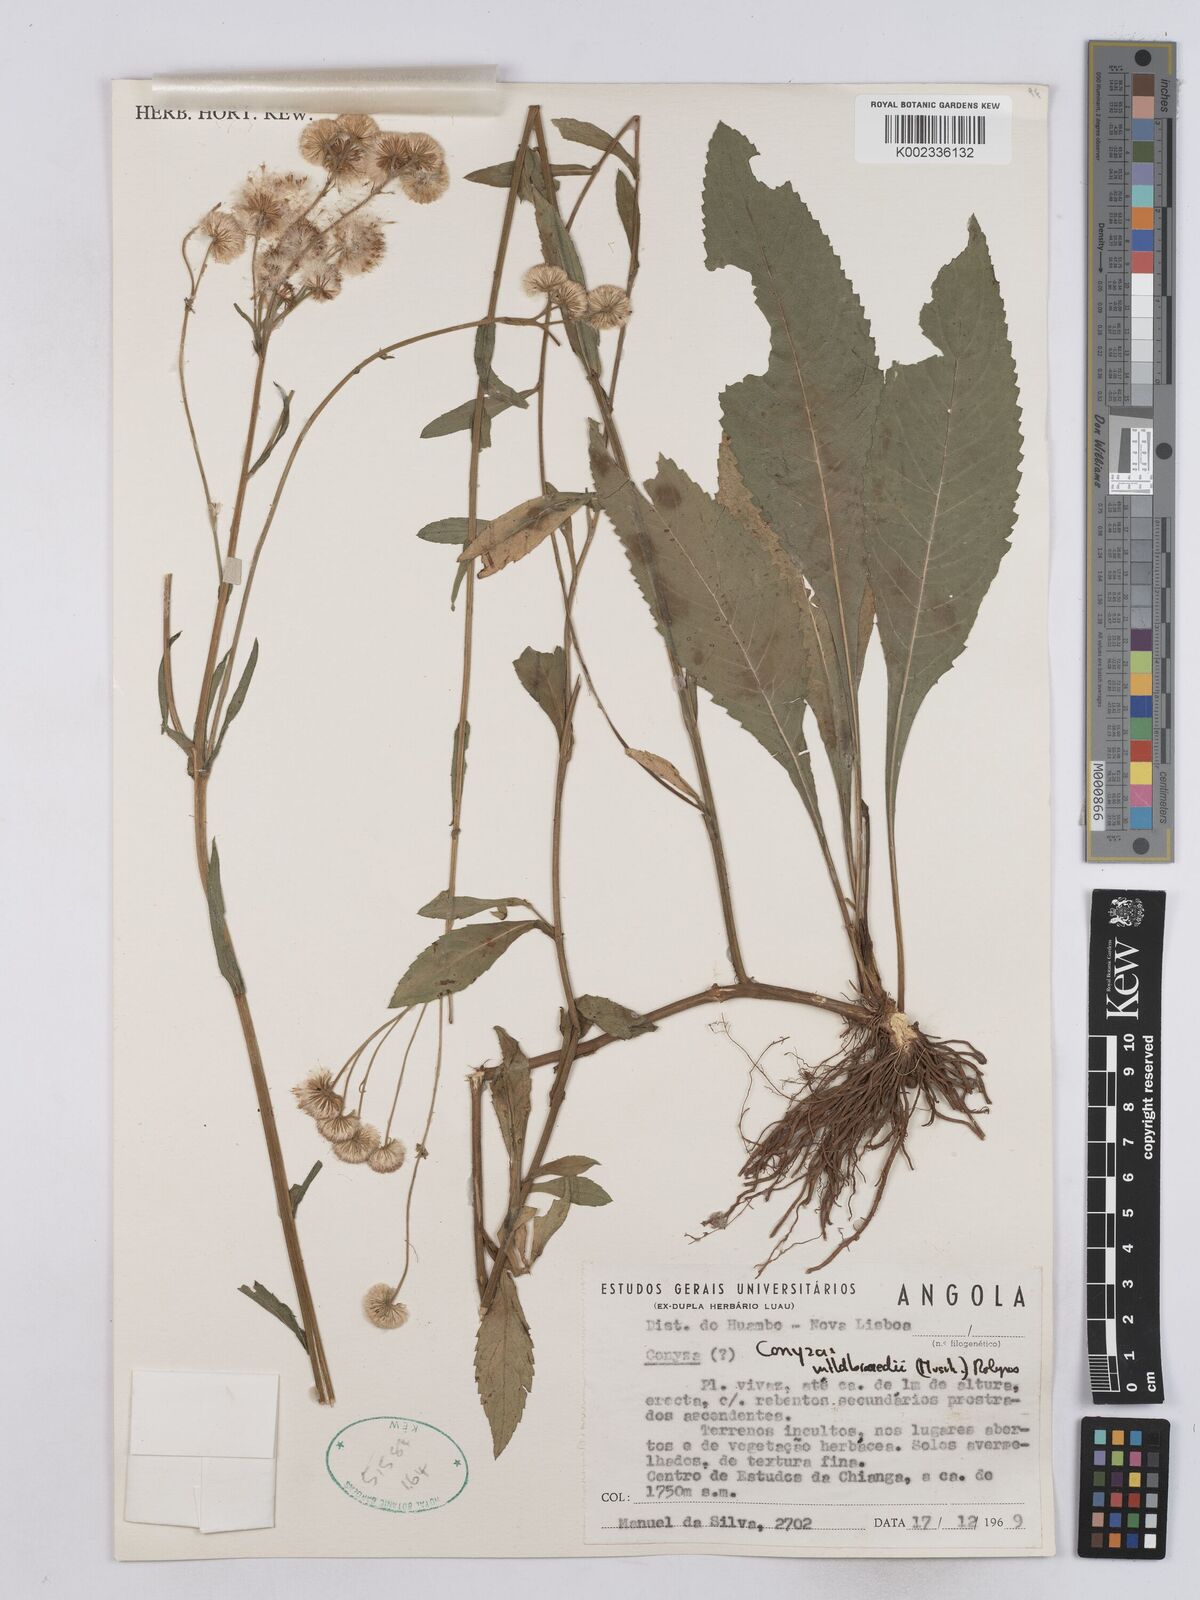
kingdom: Plantae
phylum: Tracheophyta
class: Magnoliopsida
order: Asterales
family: Asteraceae
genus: Conyza
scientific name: Conyza limosa
